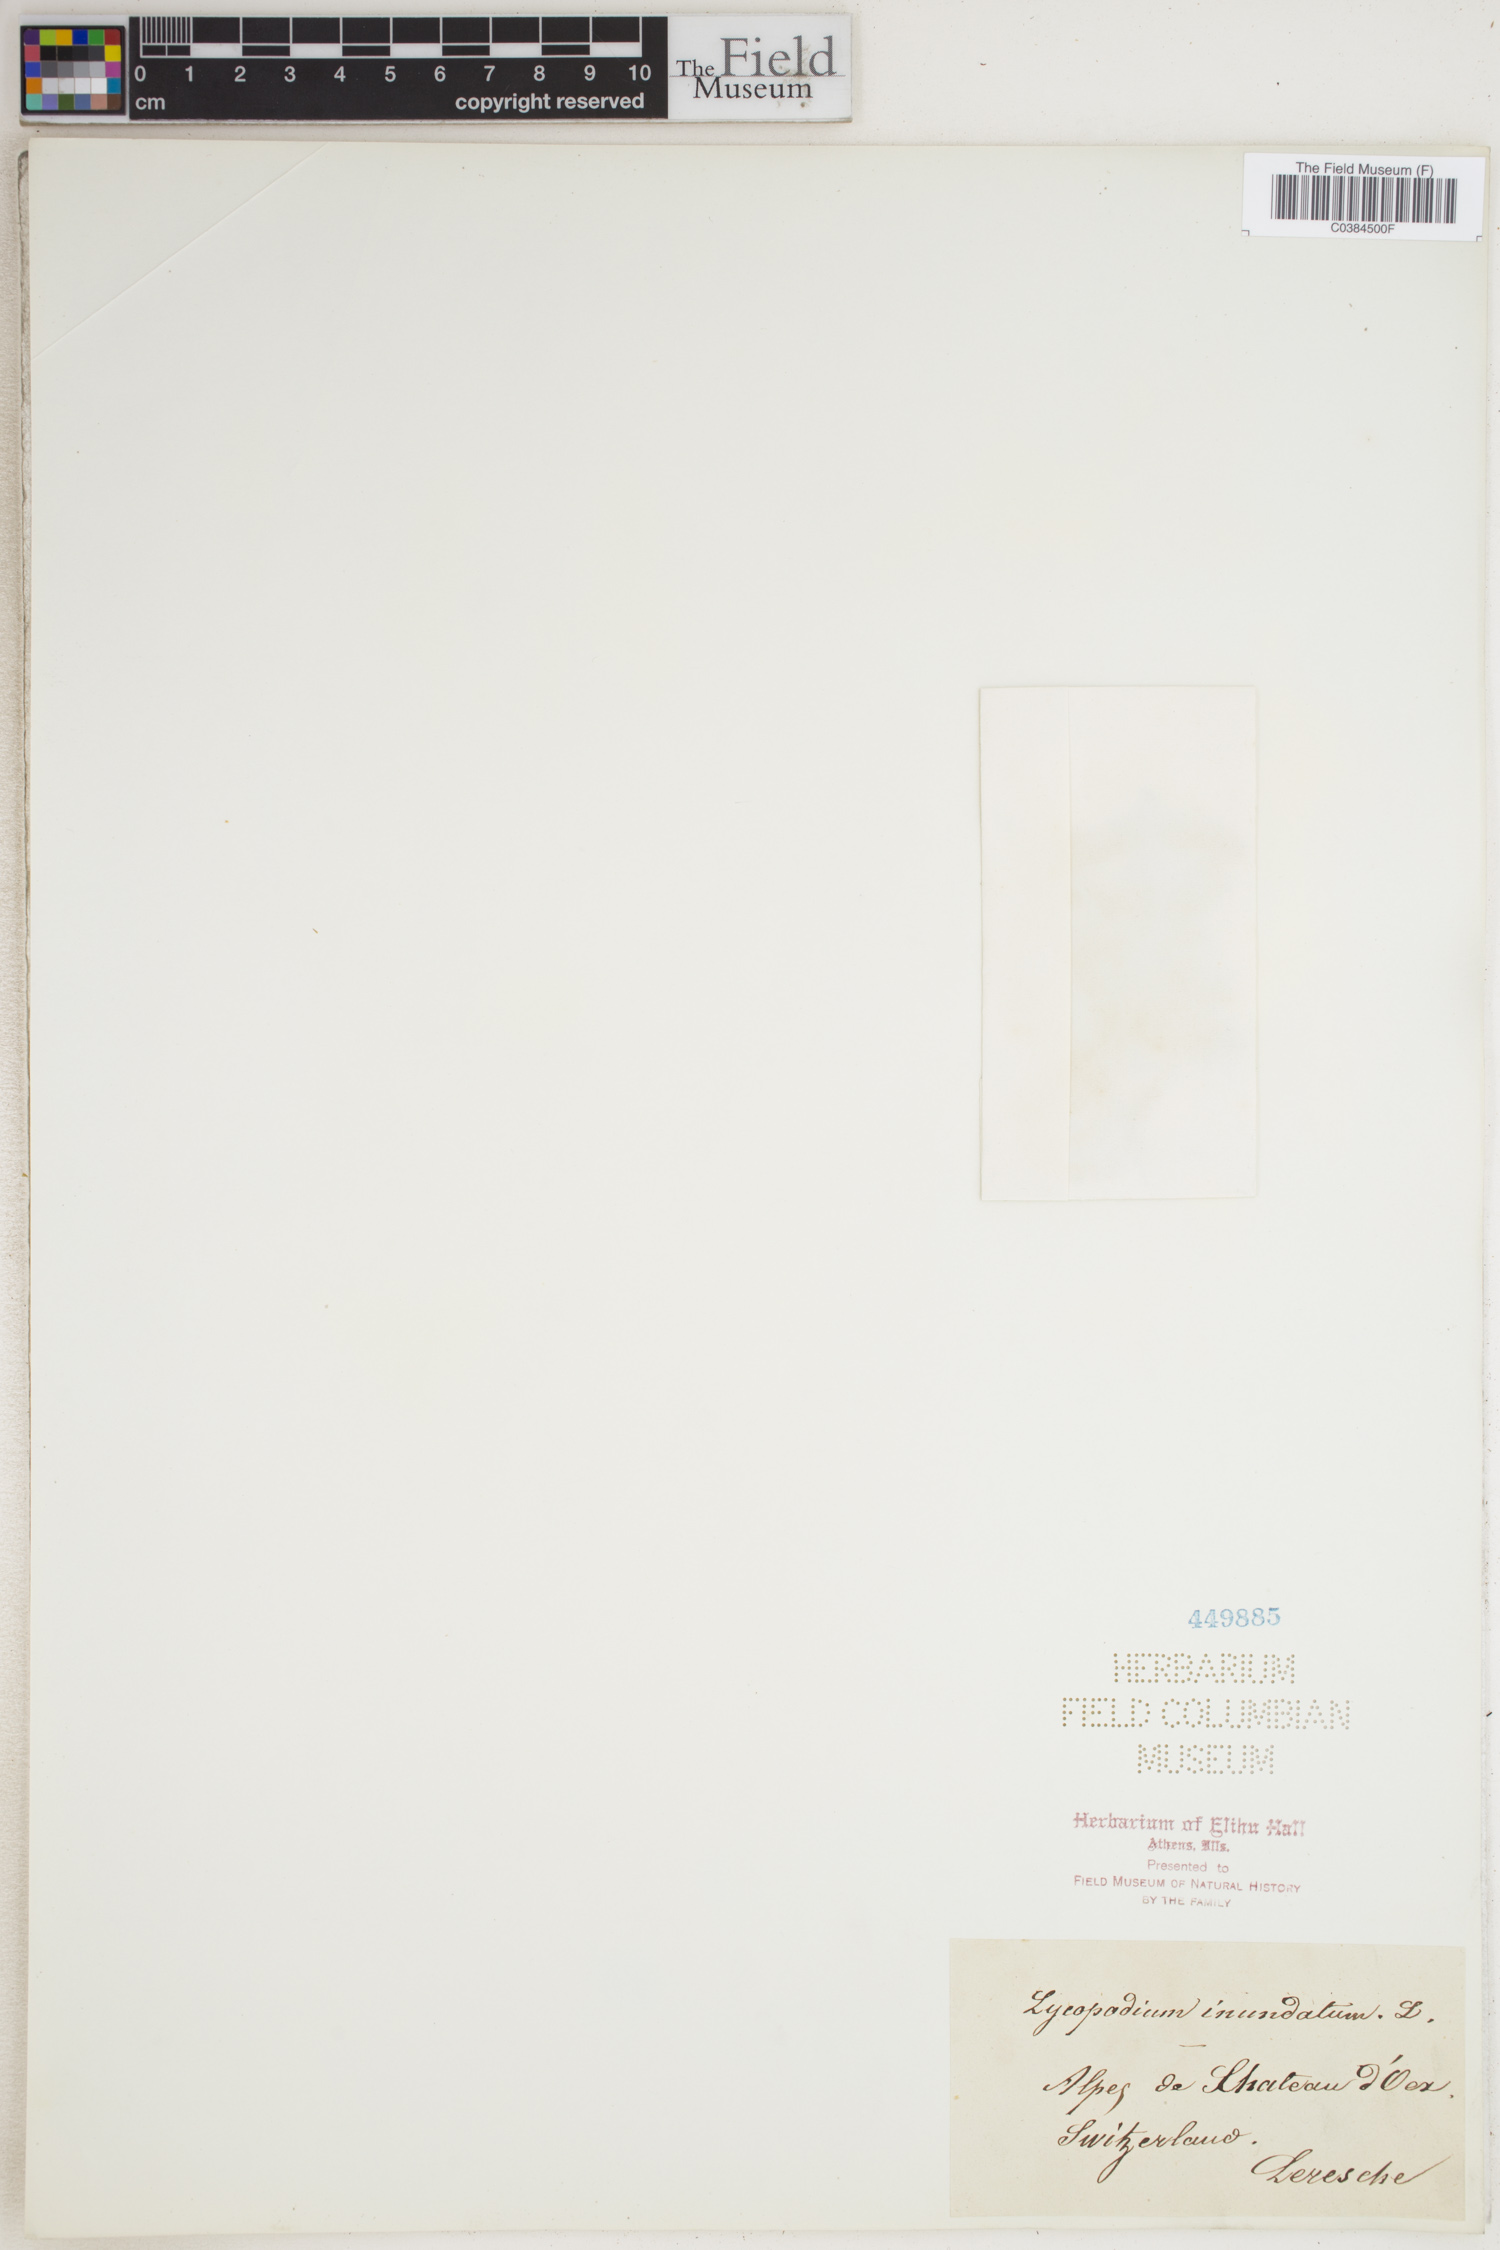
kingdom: Plantae
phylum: Tracheophyta
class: Lycopodiopsida
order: Lycopodiales
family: Lycopodiaceae
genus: Lycopodiella
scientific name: Lycopodiella inundata
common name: Marsh clubmoss
